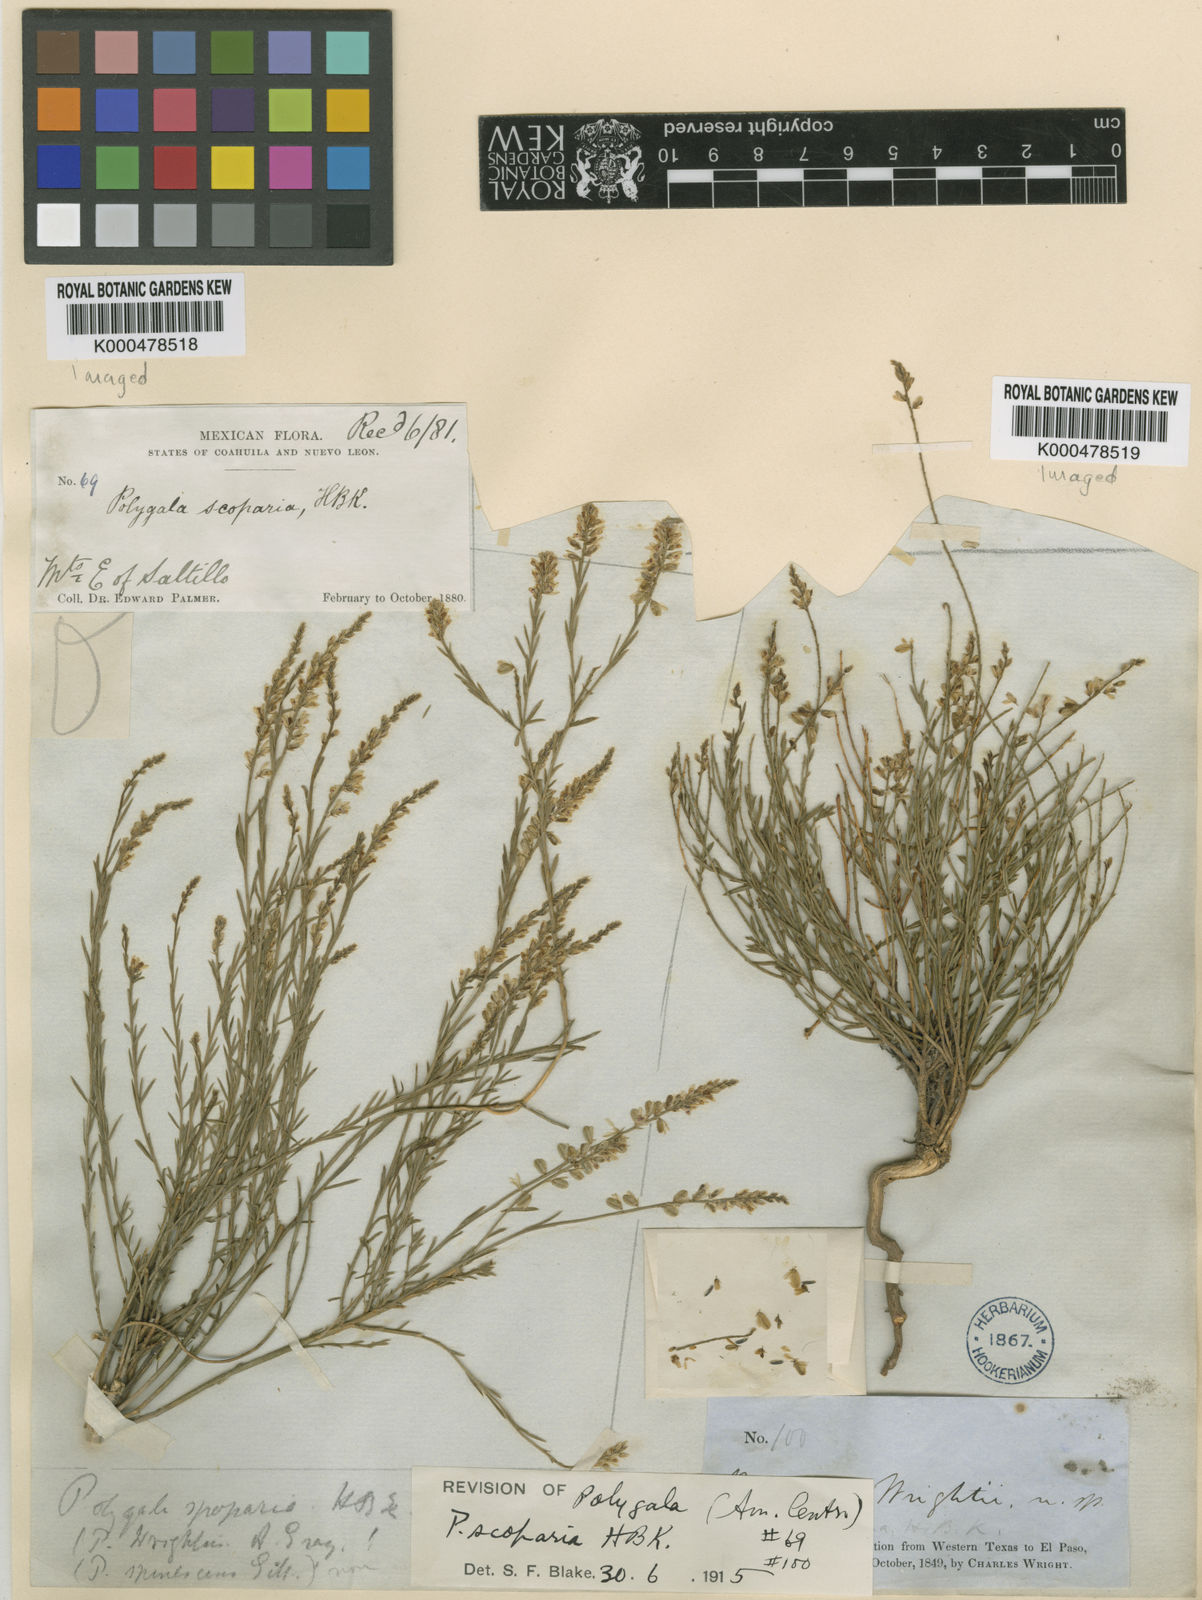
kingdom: Plantae
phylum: Tracheophyta
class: Magnoliopsida
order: Fabales
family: Polygalaceae
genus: Polygala
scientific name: Polygala mexicana
